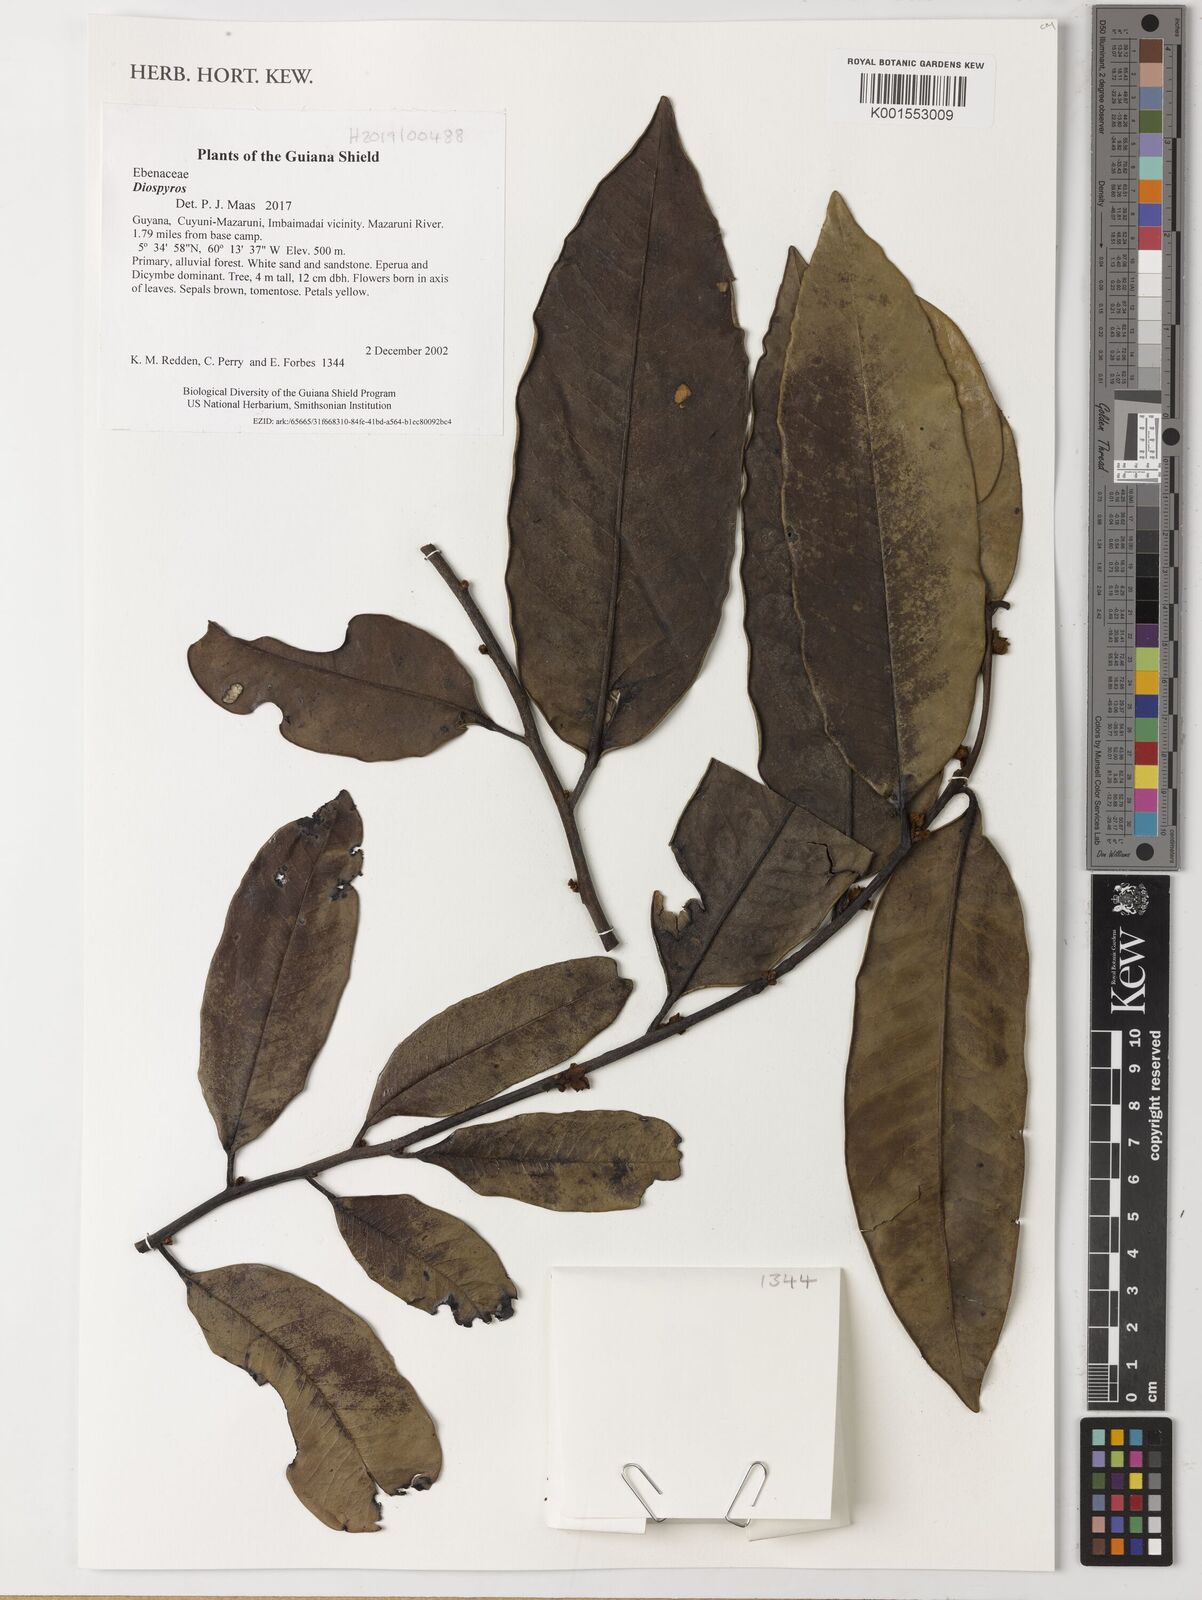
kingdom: Plantae
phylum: Tracheophyta
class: Magnoliopsida
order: Ericales
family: Ebenaceae
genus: Diospyros
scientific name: Diospyros
